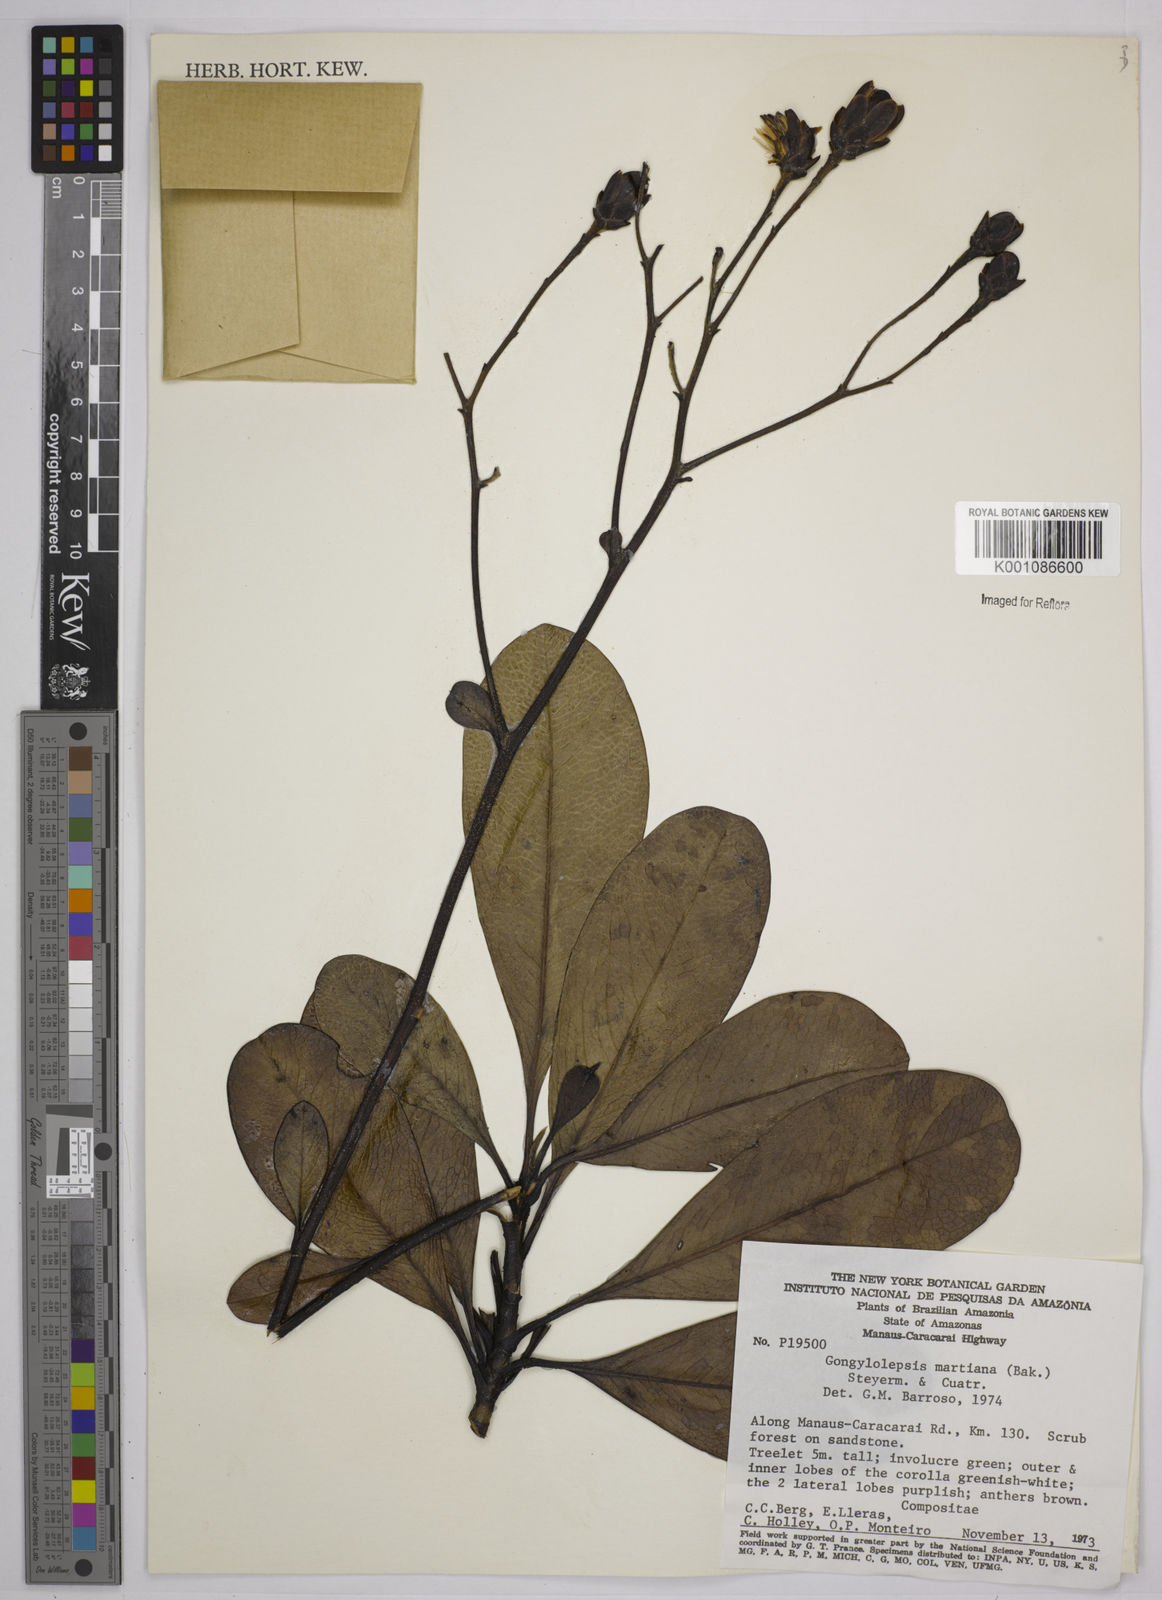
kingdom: Plantae
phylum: Tracheophyta
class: Magnoliopsida
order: Asterales
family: Asteraceae
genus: Gongylolepis
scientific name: Gongylolepis martiana
